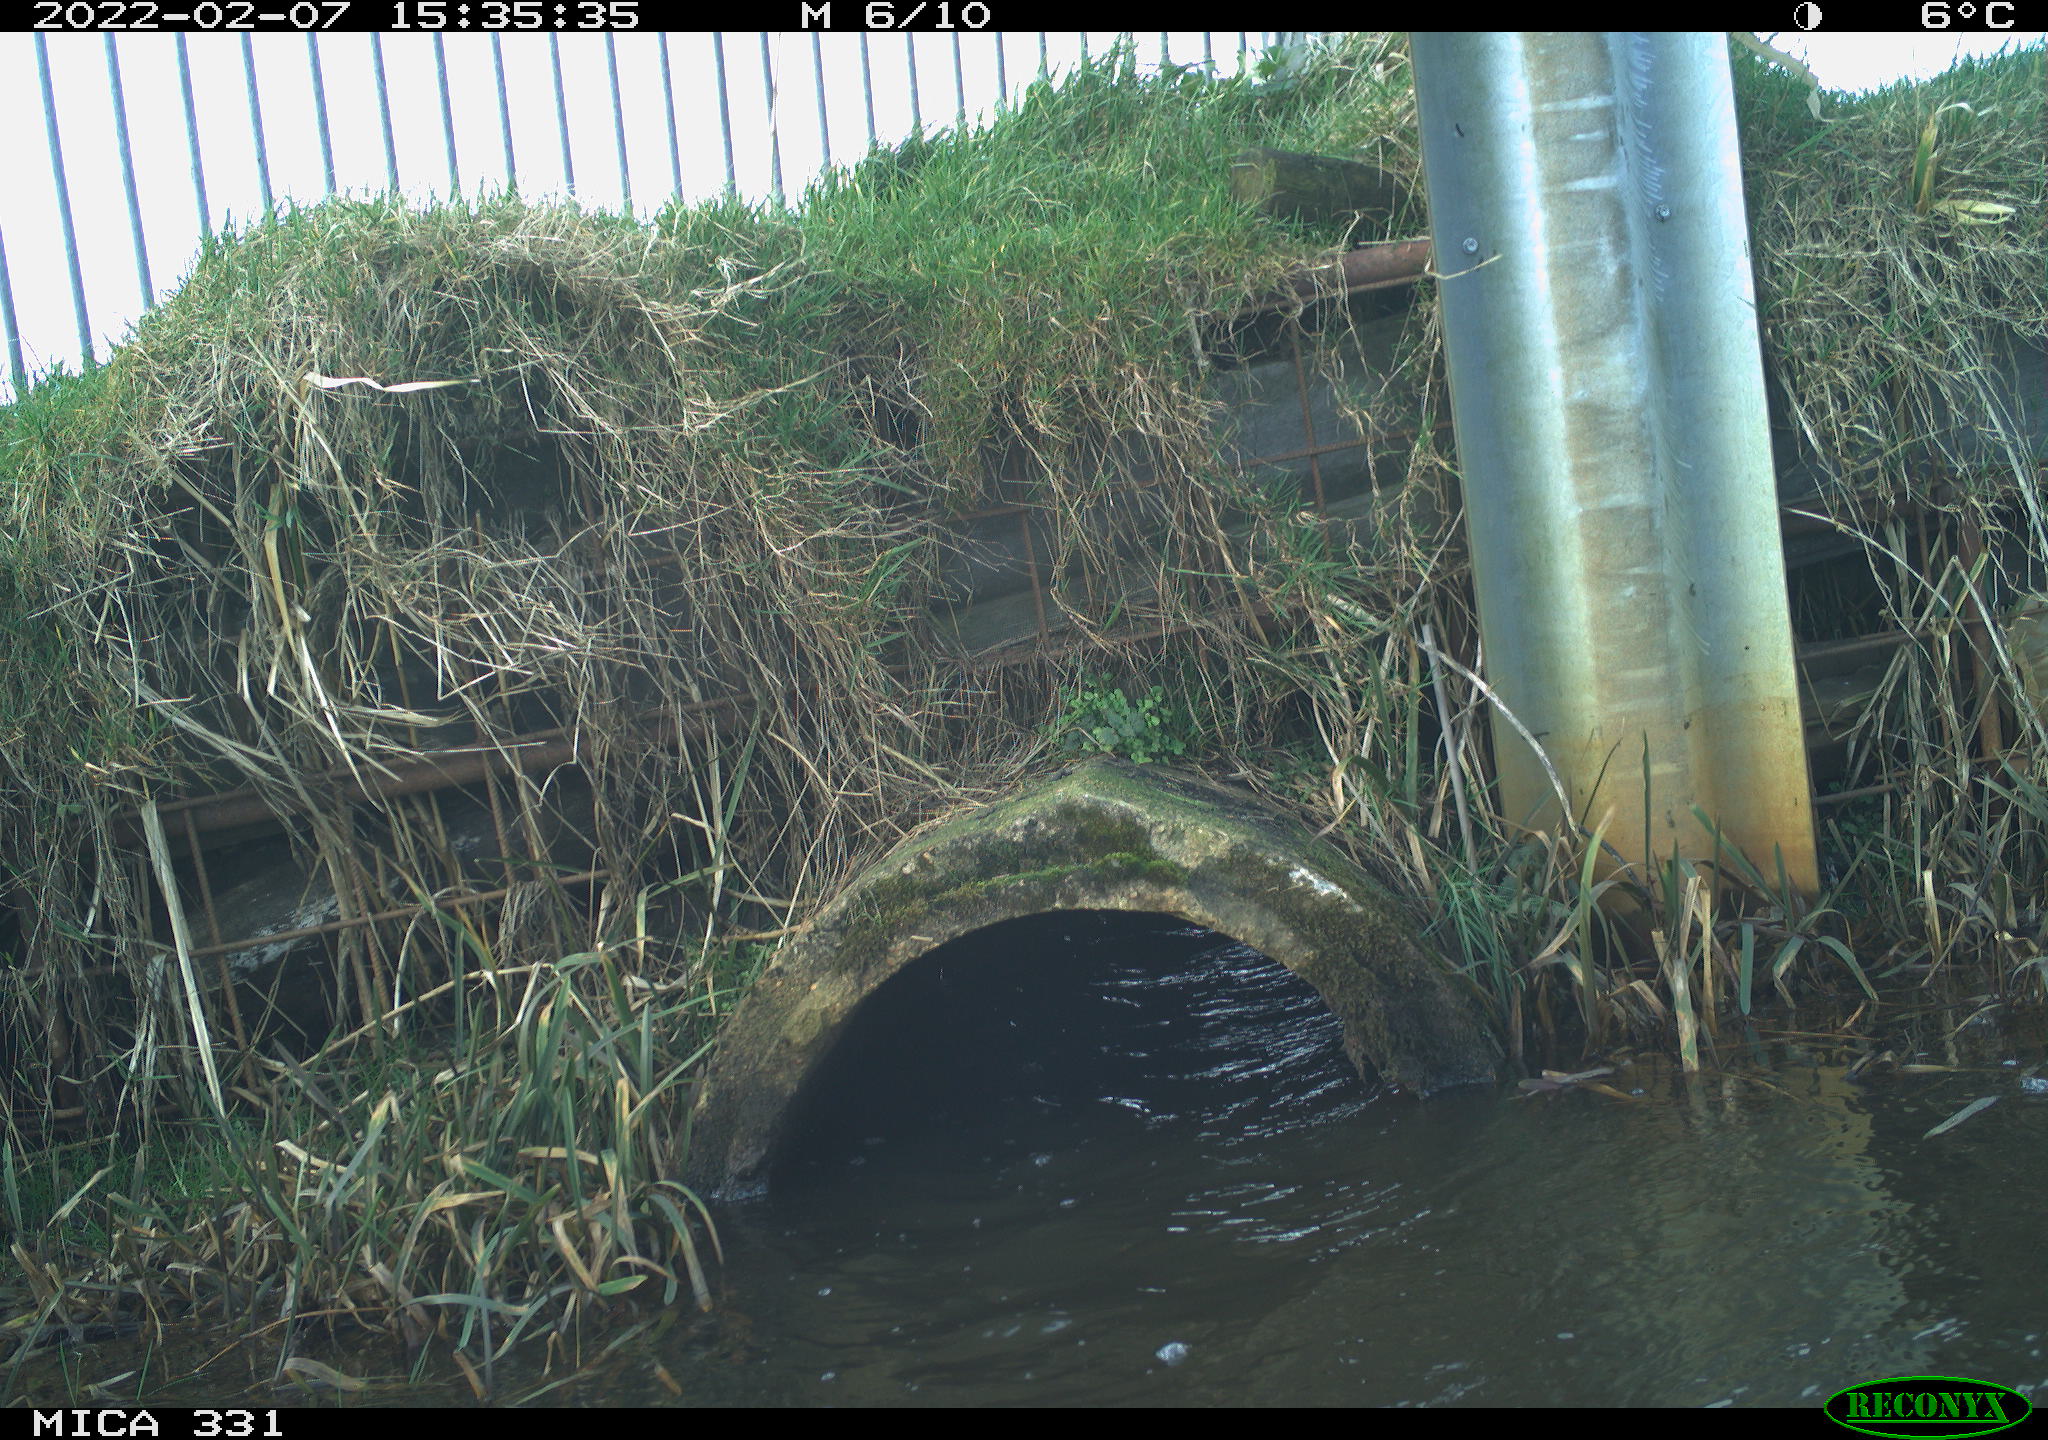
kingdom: Animalia
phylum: Chordata
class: Aves
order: Pelecaniformes
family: Ardeidae
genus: Ardea
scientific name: Ardea alba
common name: Great egret
